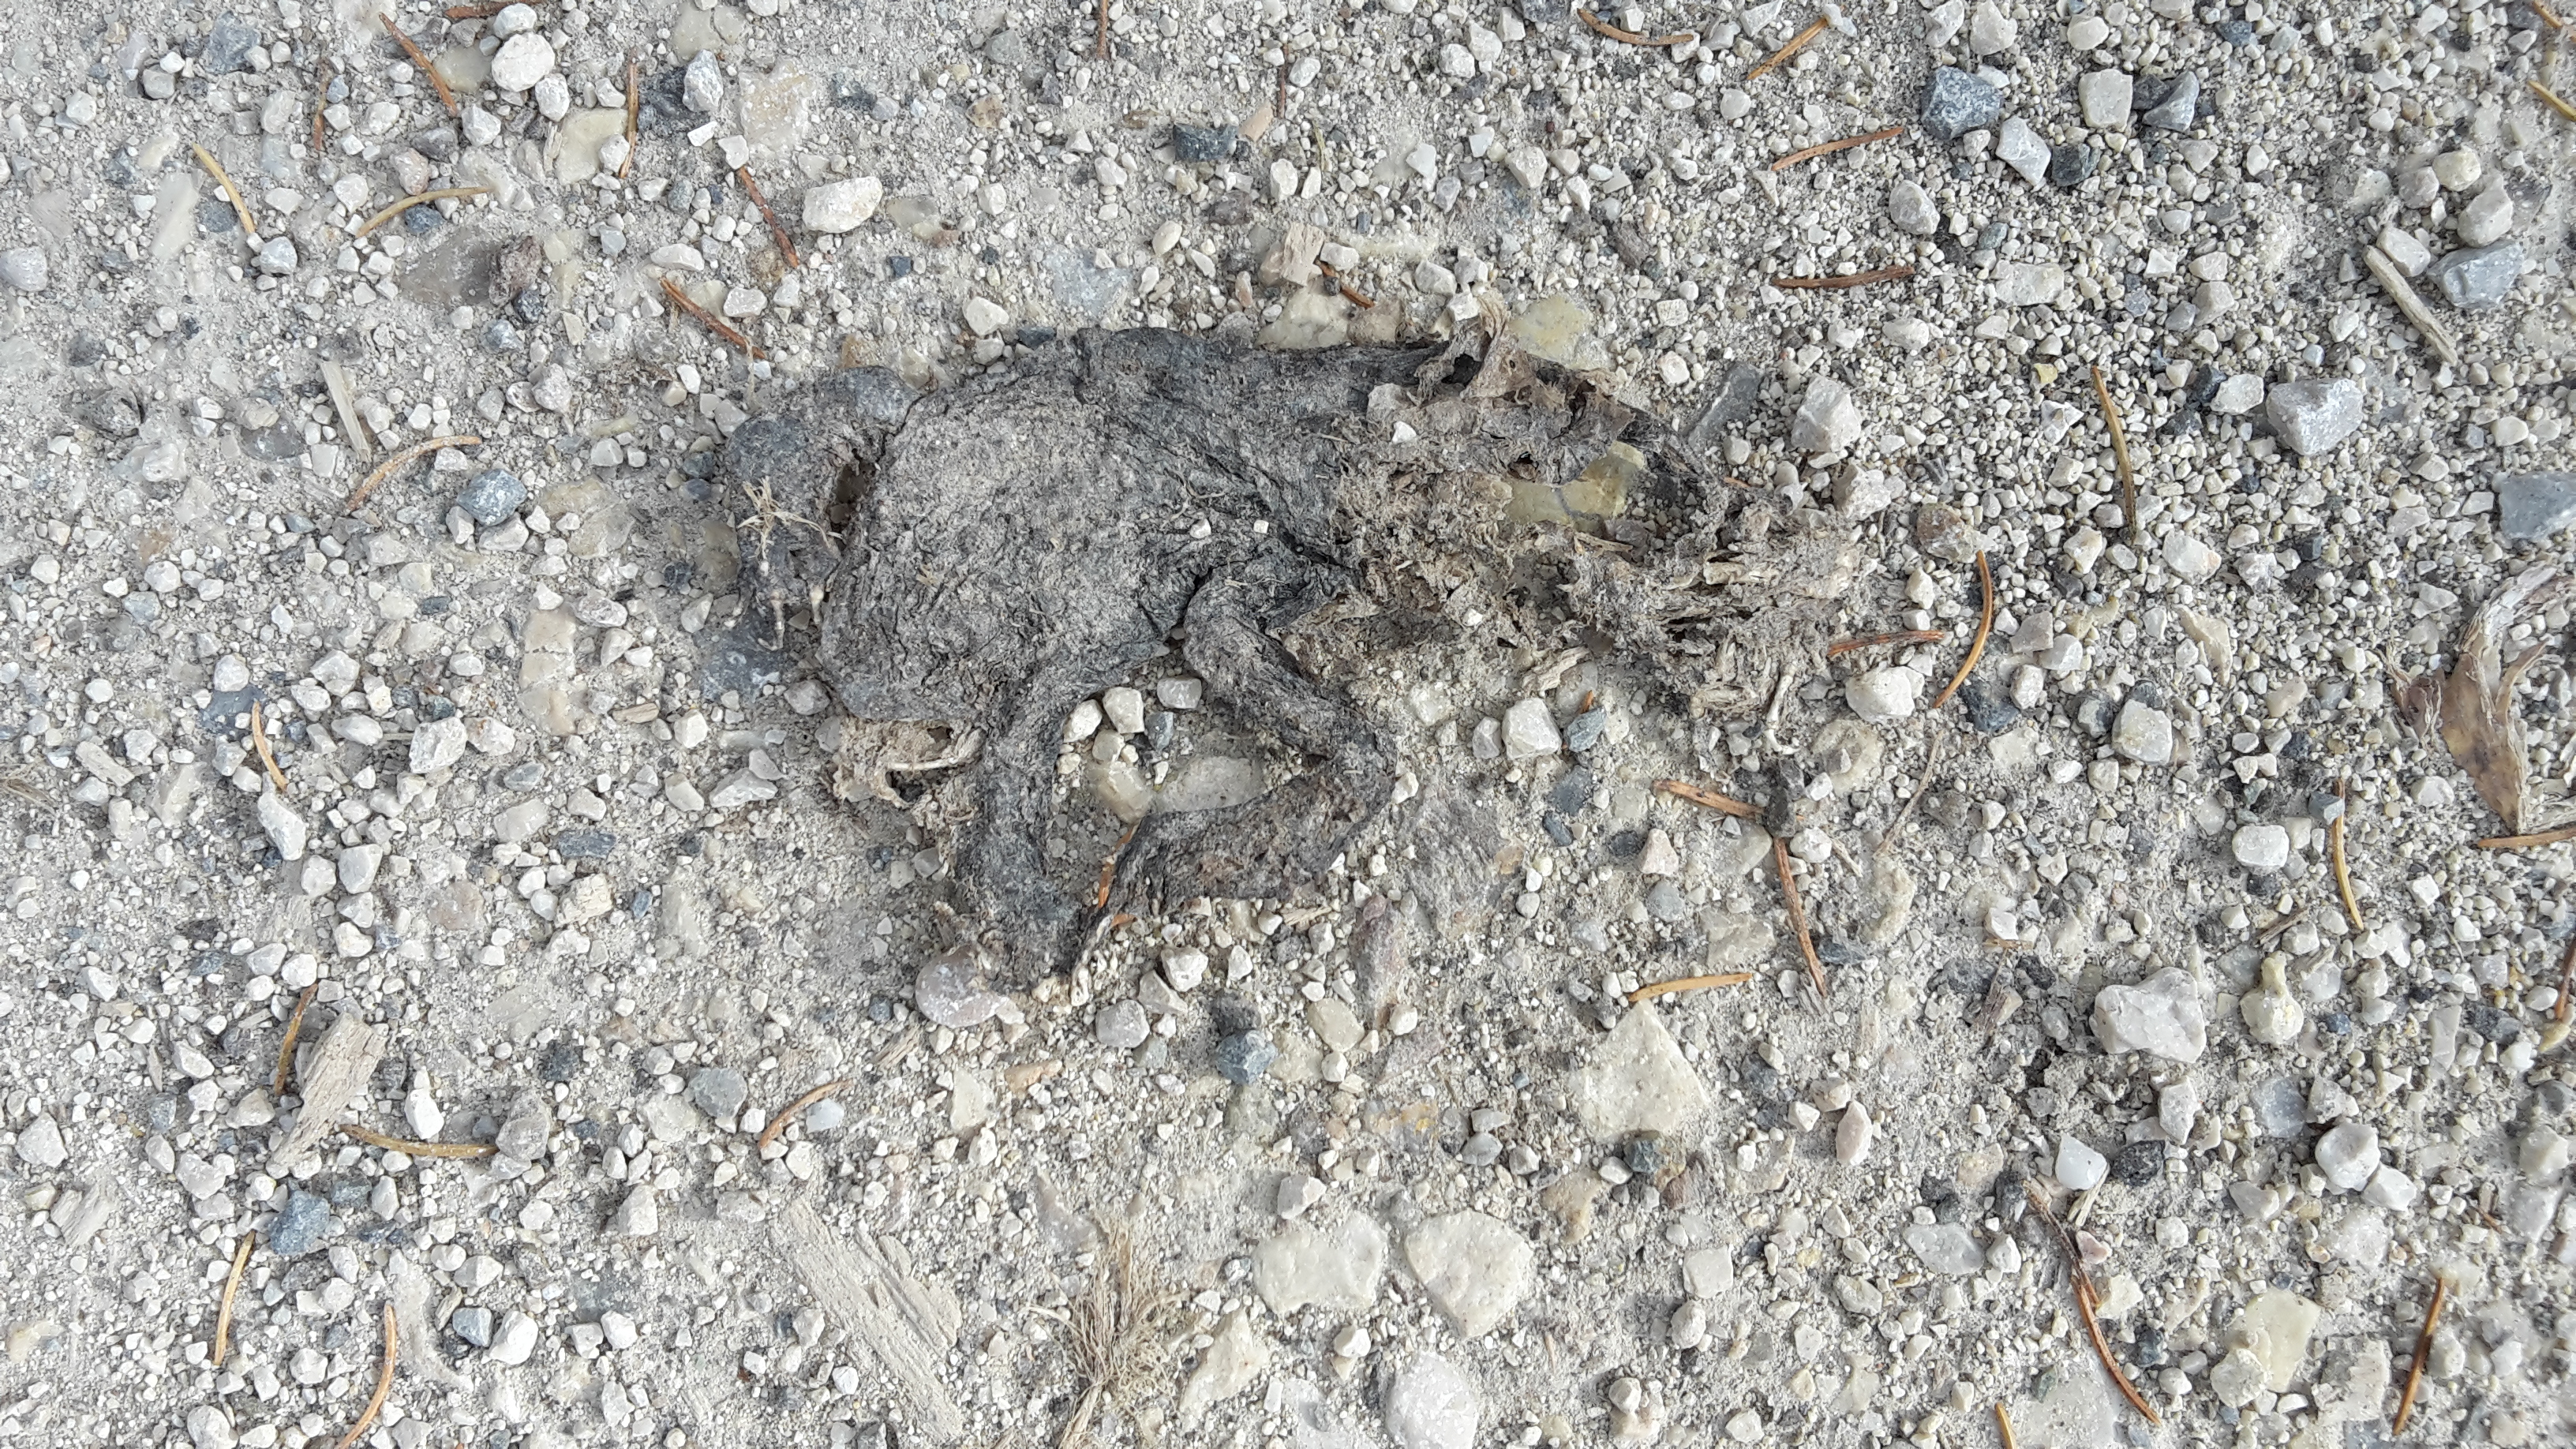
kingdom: Animalia
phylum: Chordata
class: Amphibia
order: Anura
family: Bufonidae
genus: Bufo
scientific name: Bufo bufo
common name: Common toad
